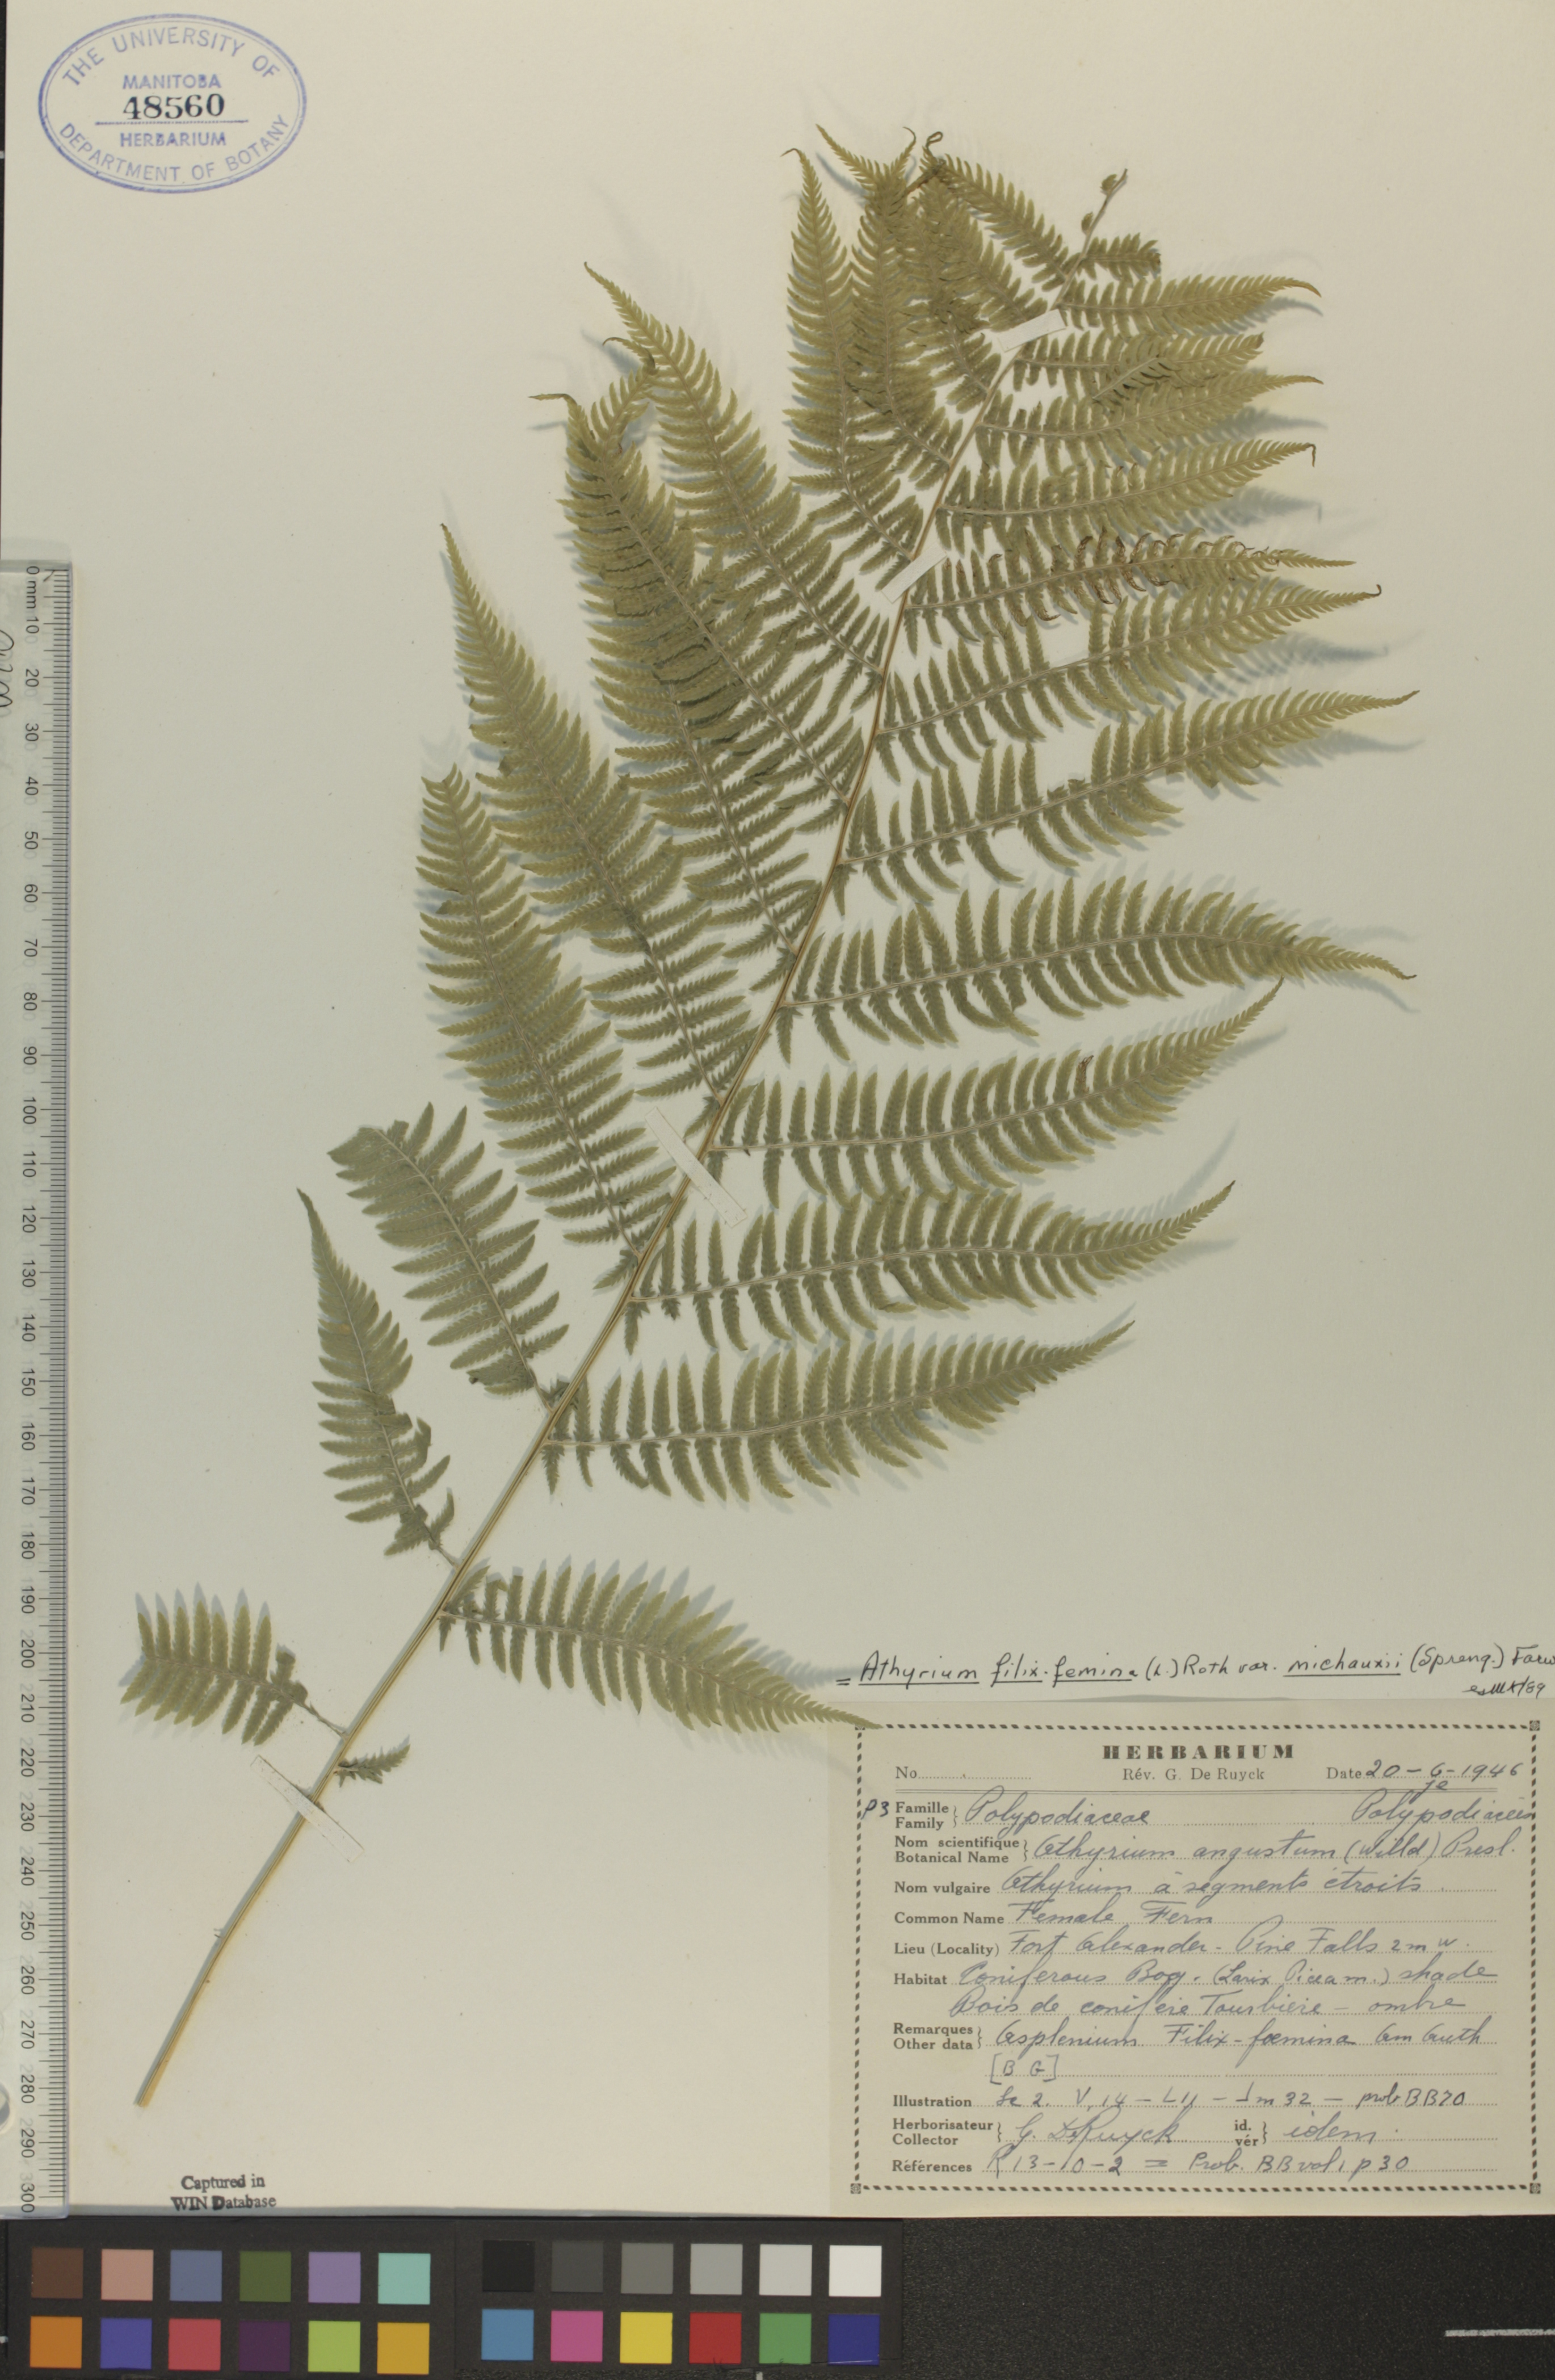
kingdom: Plantae
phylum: Tracheophyta
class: Polypodiopsida
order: Polypodiales
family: Athyriaceae
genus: Athyrium
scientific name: Athyrium angustum
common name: Northern lady fern
